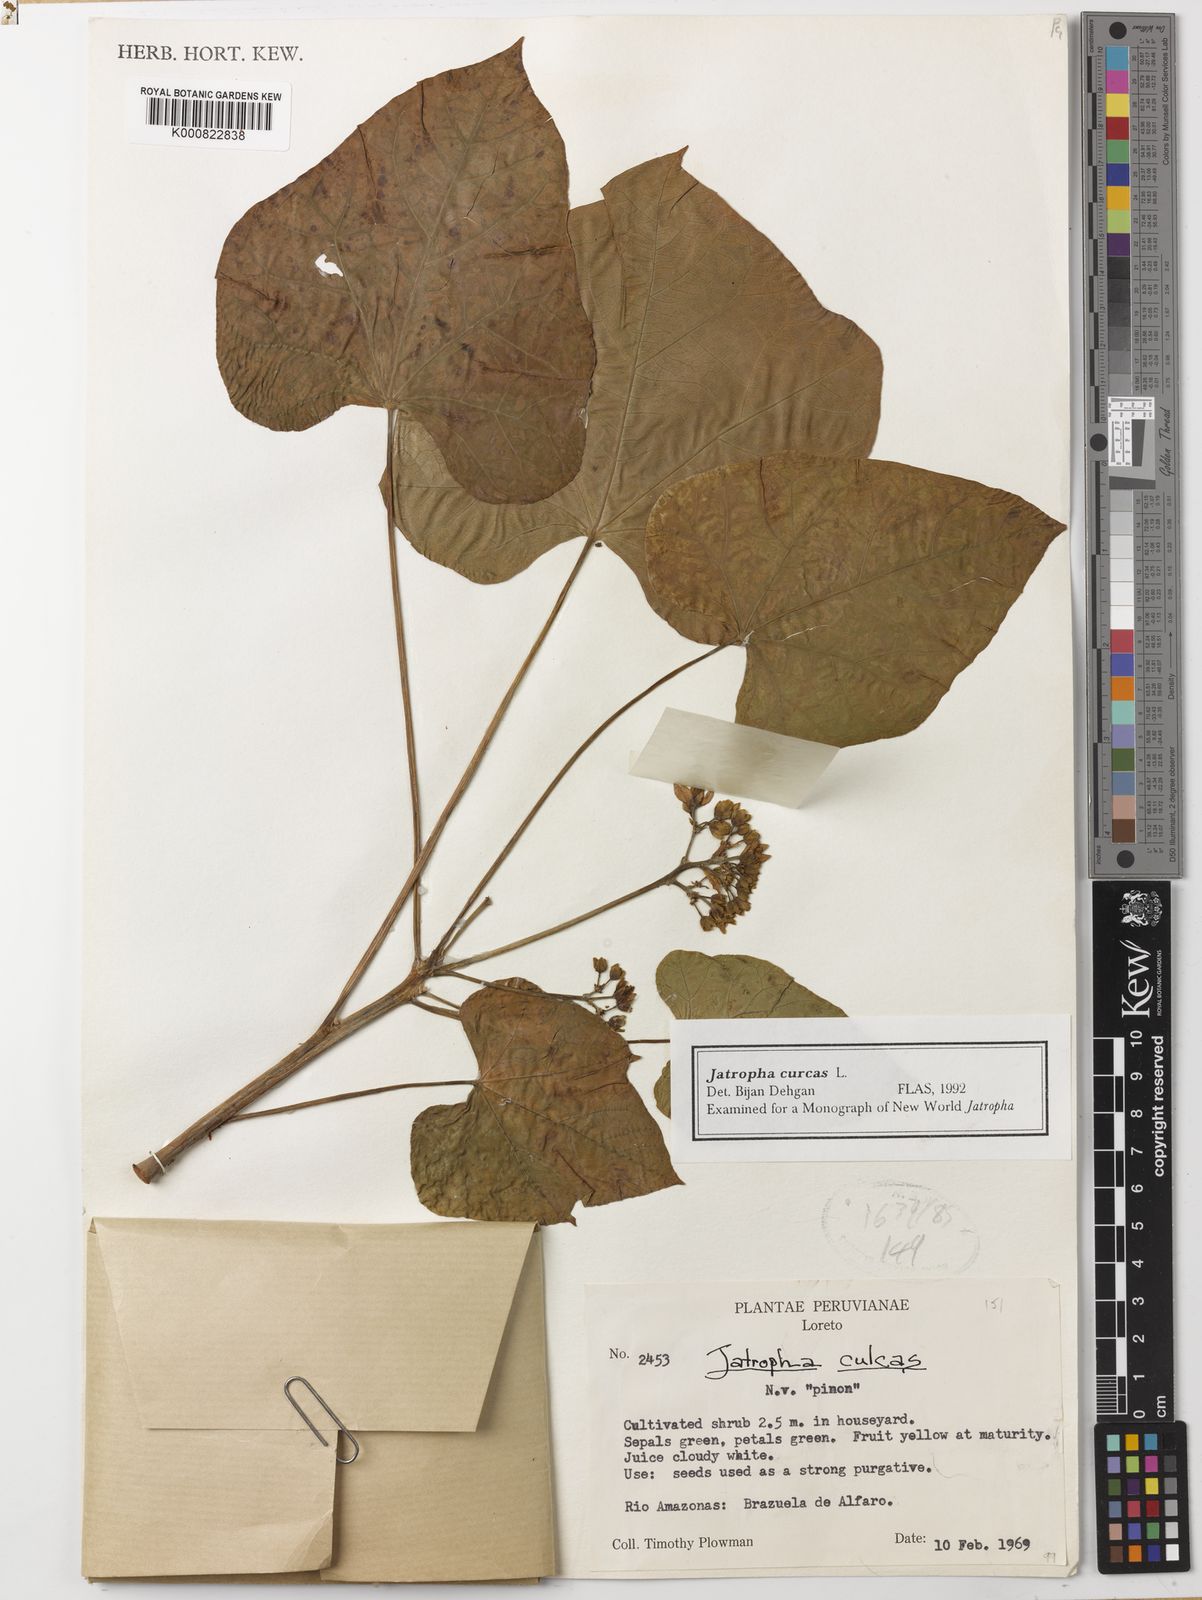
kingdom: Plantae
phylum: Tracheophyta
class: Magnoliopsida
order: Malpighiales
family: Euphorbiaceae
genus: Jatropha
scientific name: Jatropha curcas
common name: Barbados nut
